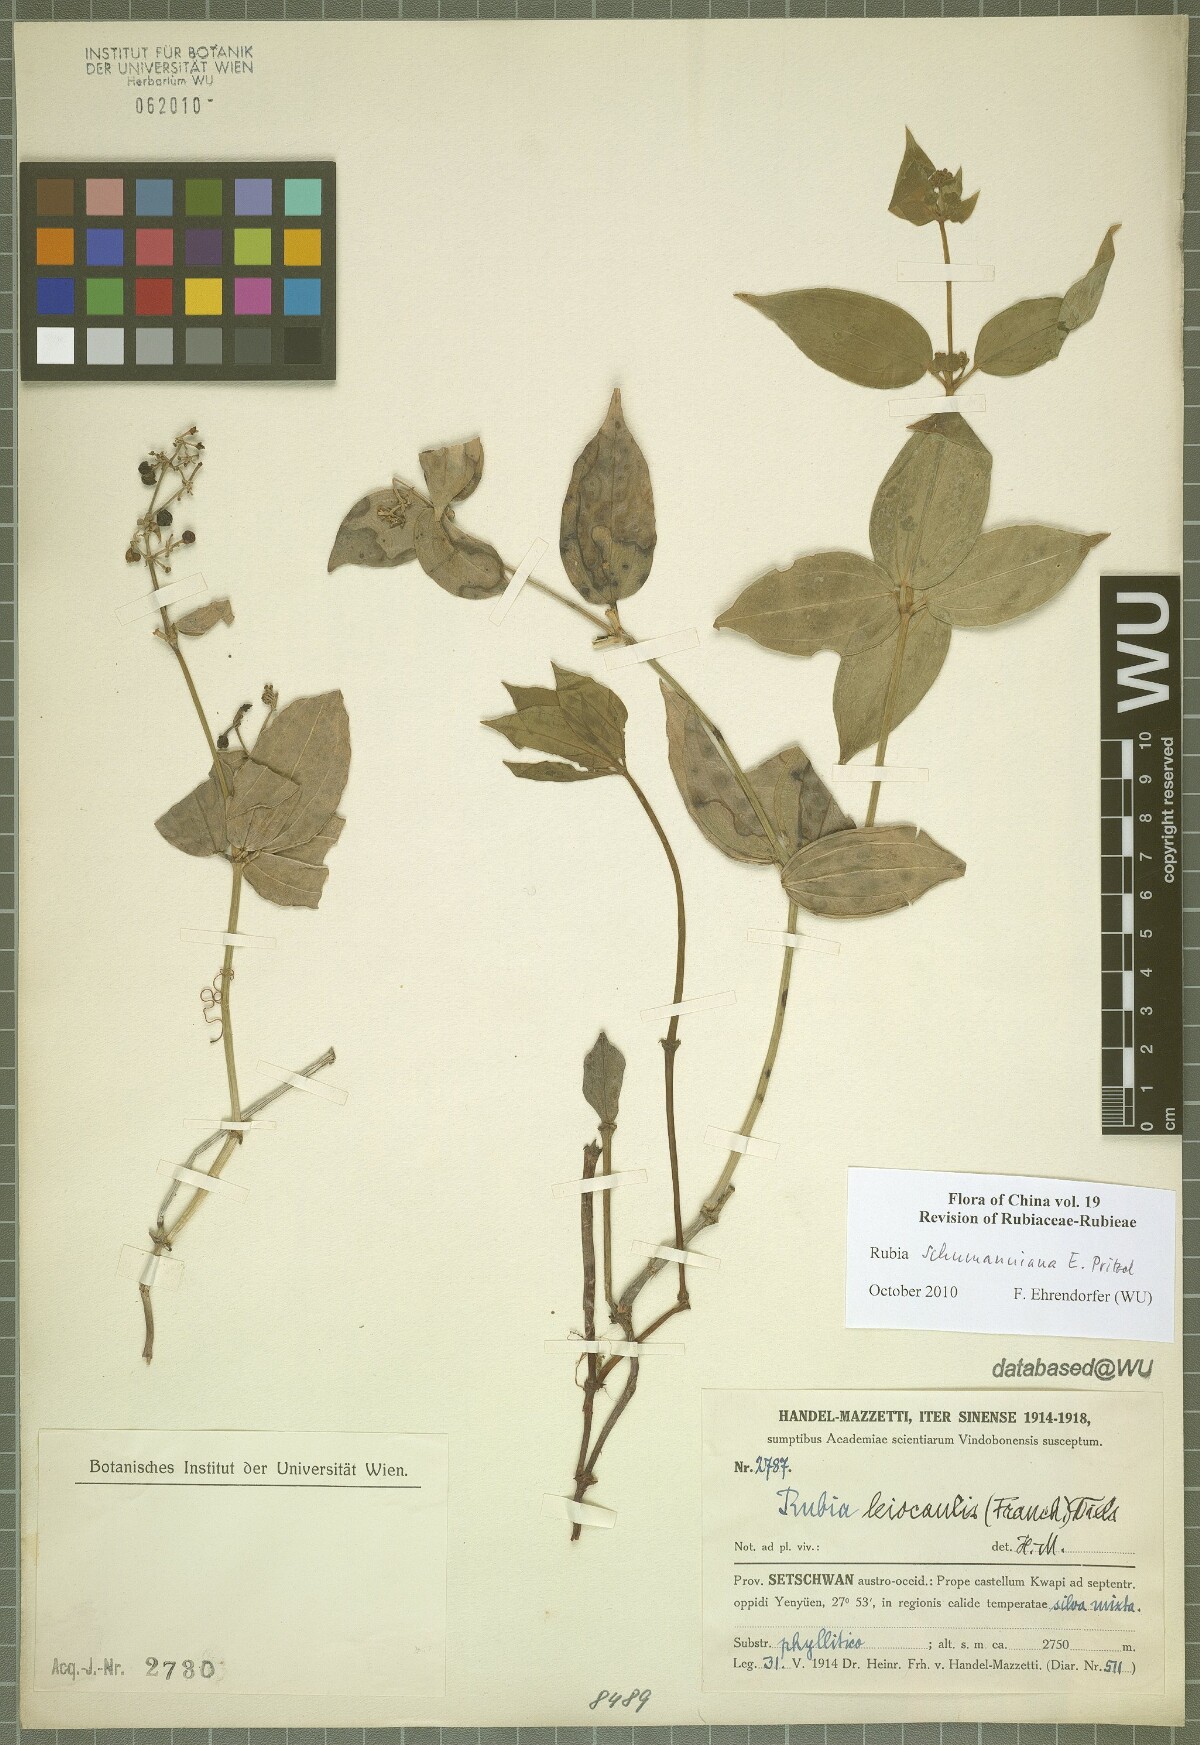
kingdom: Plantae
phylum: Tracheophyta
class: Magnoliopsida
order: Gentianales
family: Rubiaceae
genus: Rubia
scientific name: Rubia schumanniana
